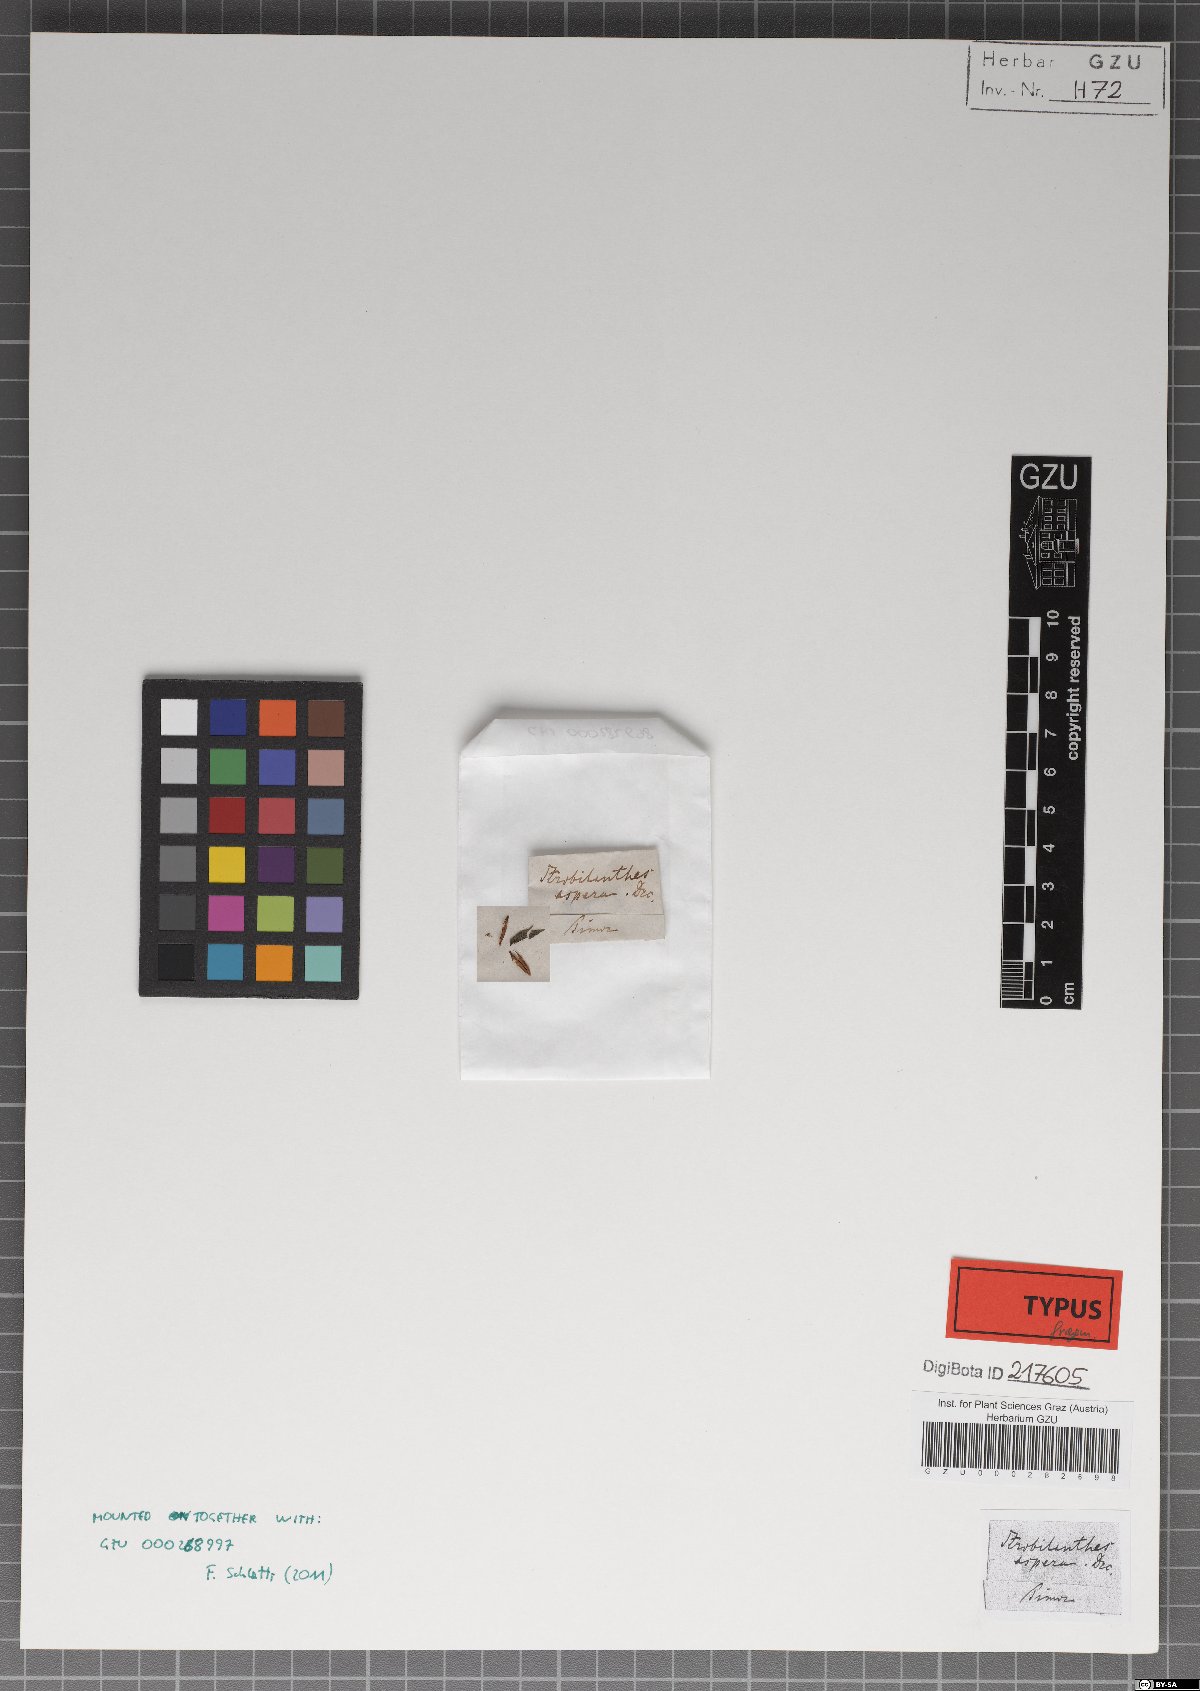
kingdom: Plantae
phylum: Tracheophyta
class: Magnoliopsida
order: Lamiales
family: Acanthaceae
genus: Strobilanthes
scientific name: Strobilanthes scaber
